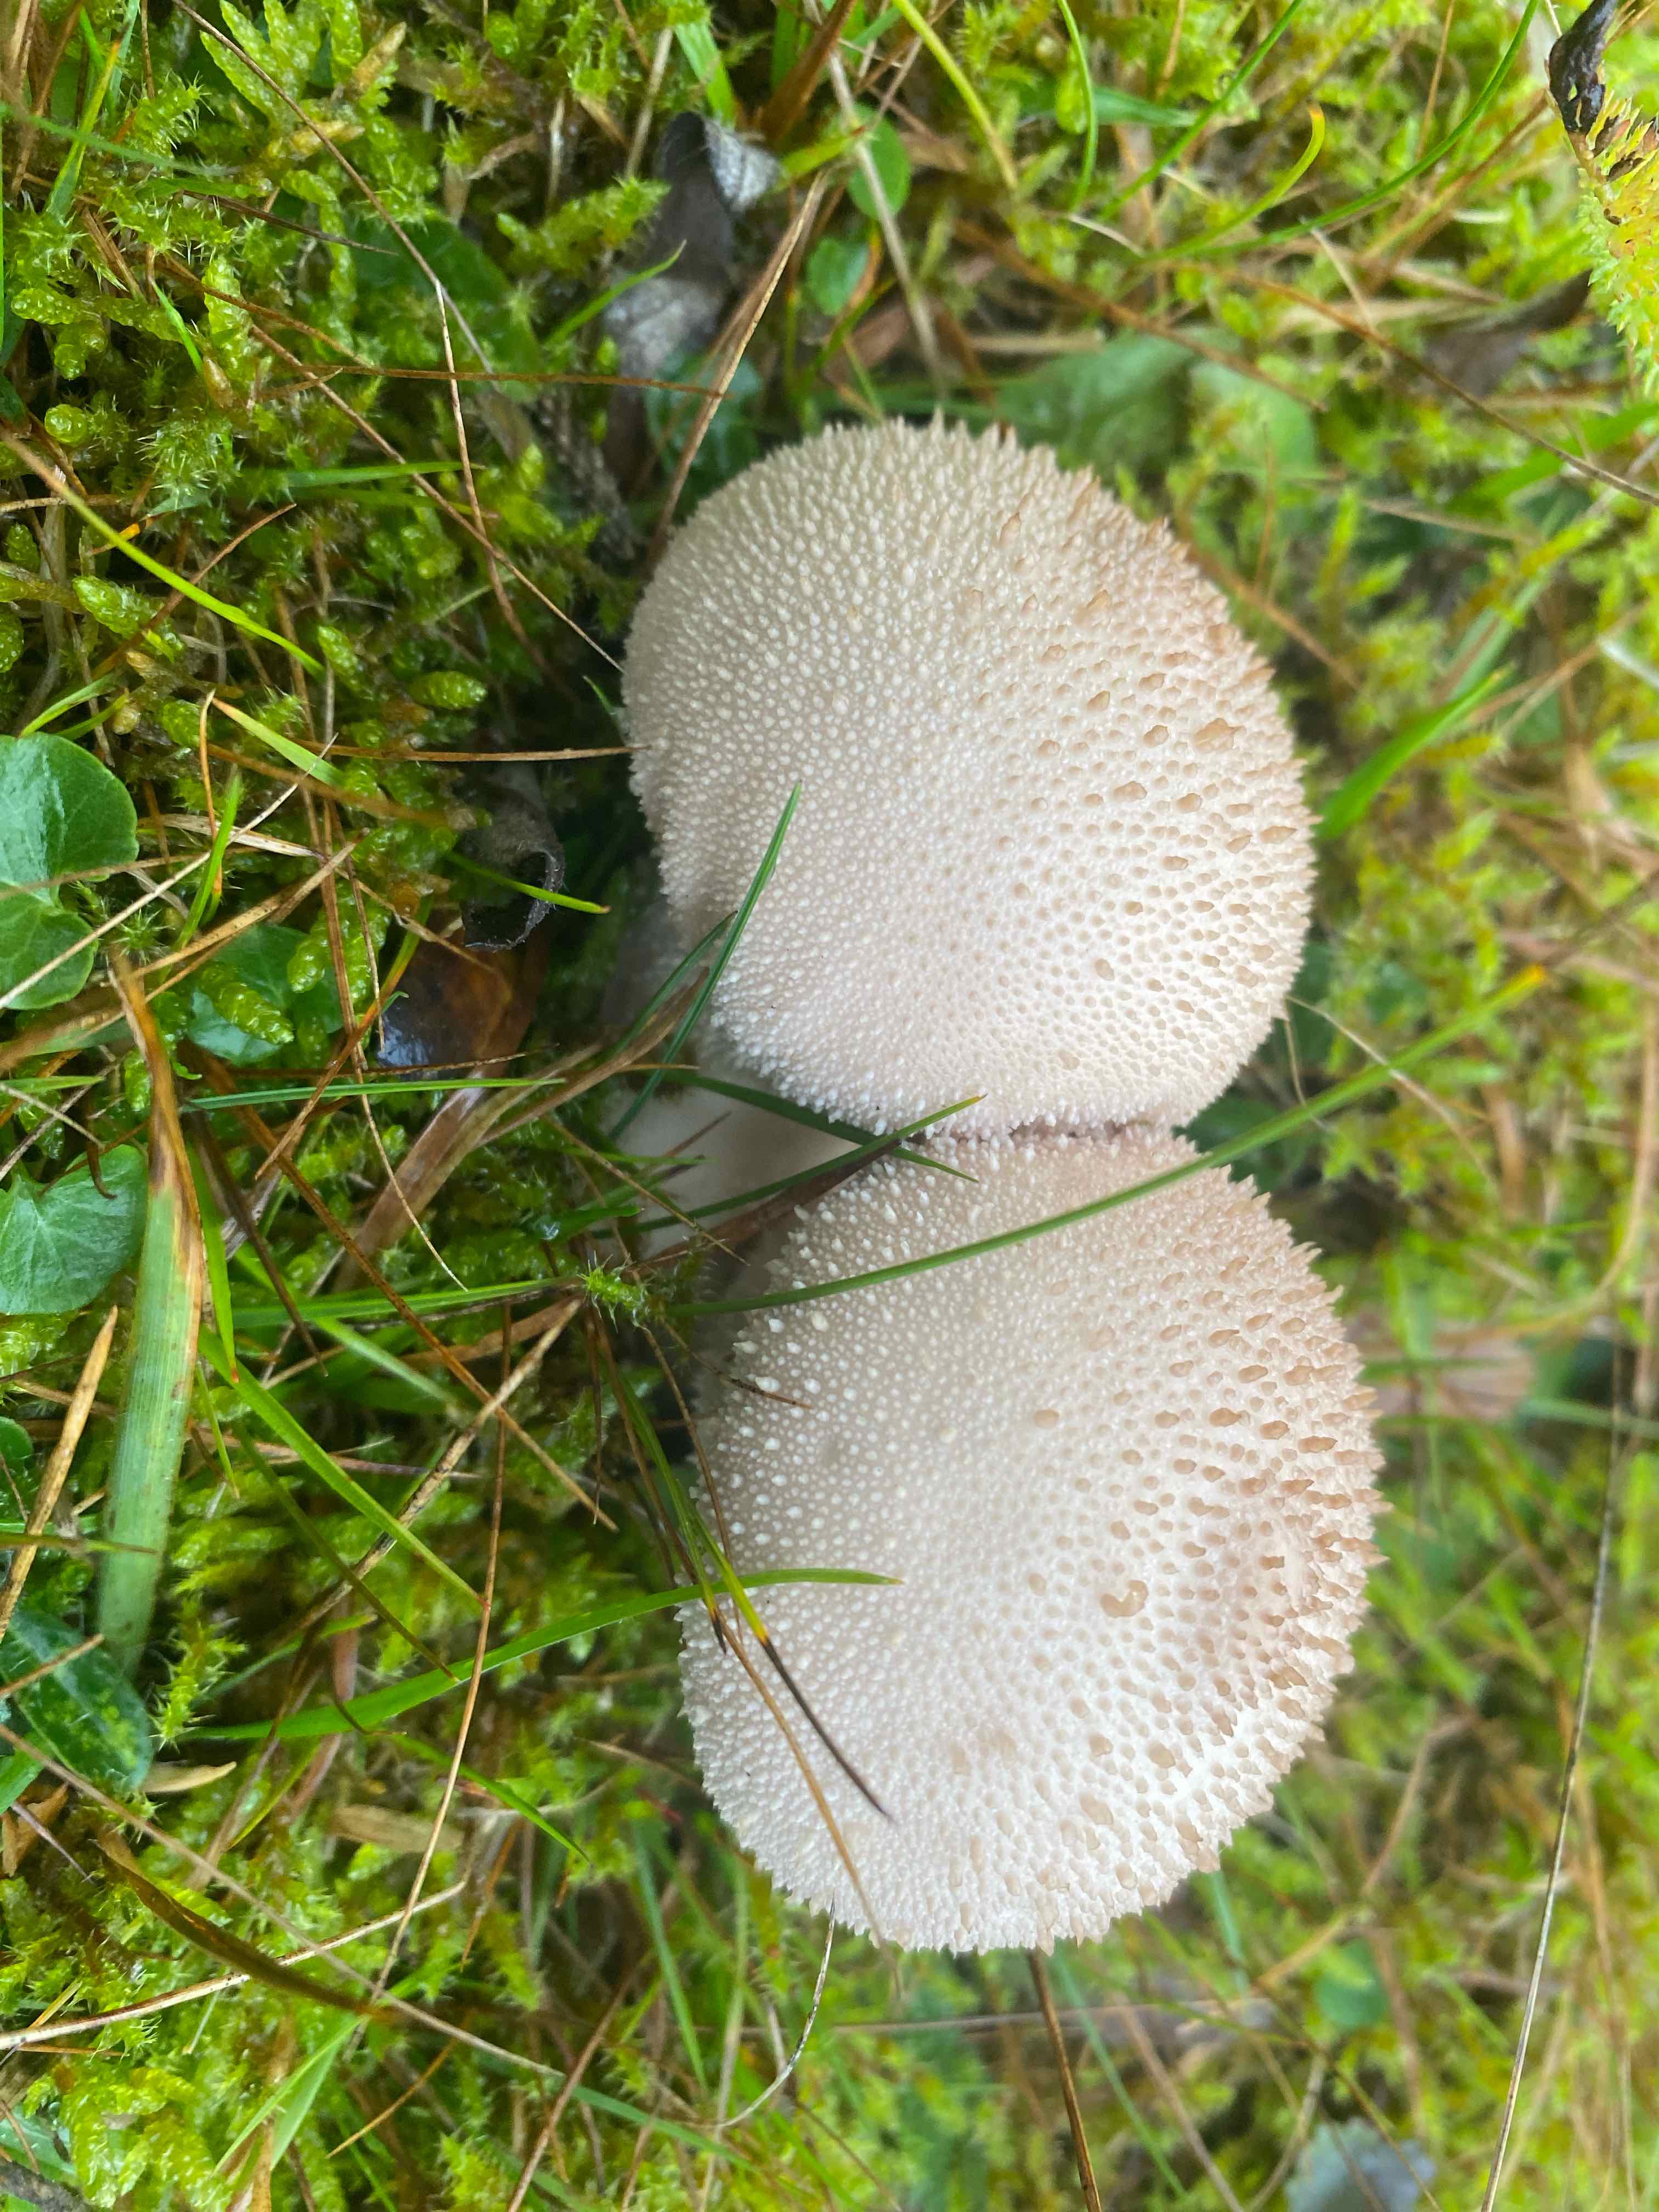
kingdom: Fungi
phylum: Basidiomycota
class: Agaricomycetes
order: Agaricales
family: Lycoperdaceae
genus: Lycoperdon
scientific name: Lycoperdon perlatum
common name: krystal-støvbold
